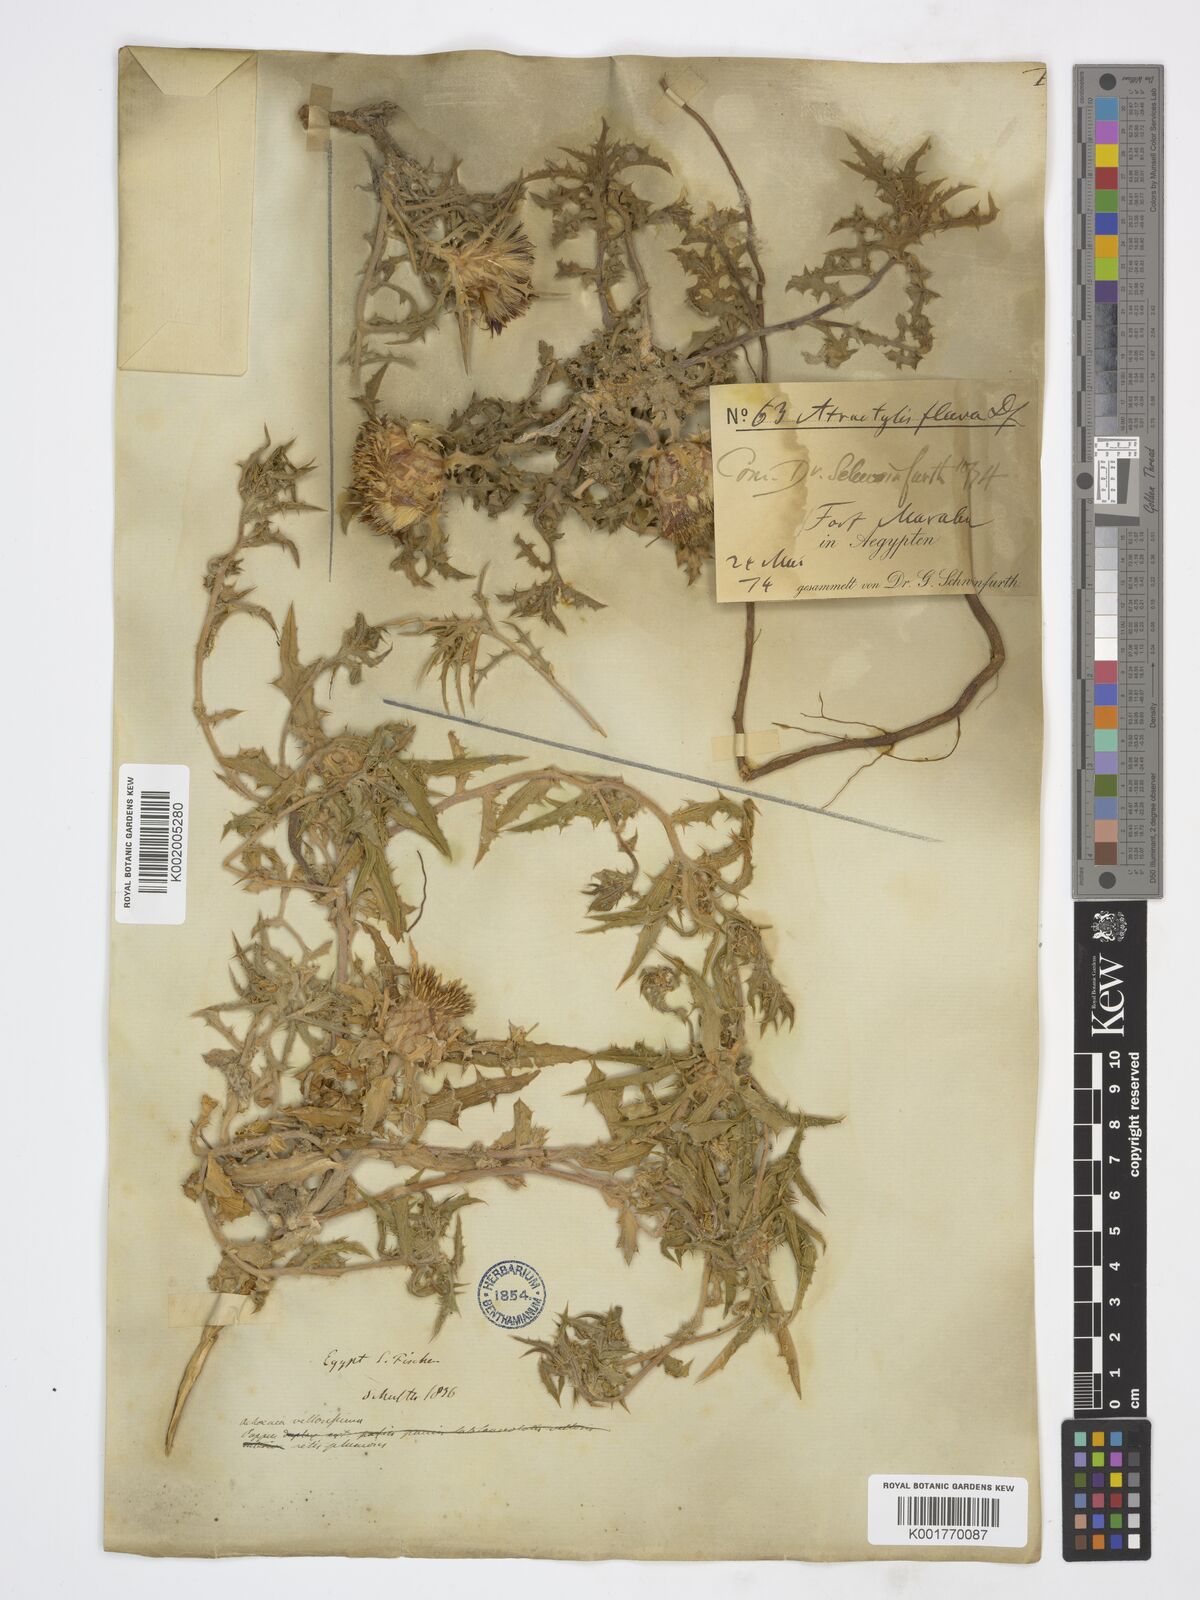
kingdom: Plantae
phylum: Tracheophyta
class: Magnoliopsida
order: Asterales
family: Asteraceae
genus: Atractylis
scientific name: Atractylis carduus
